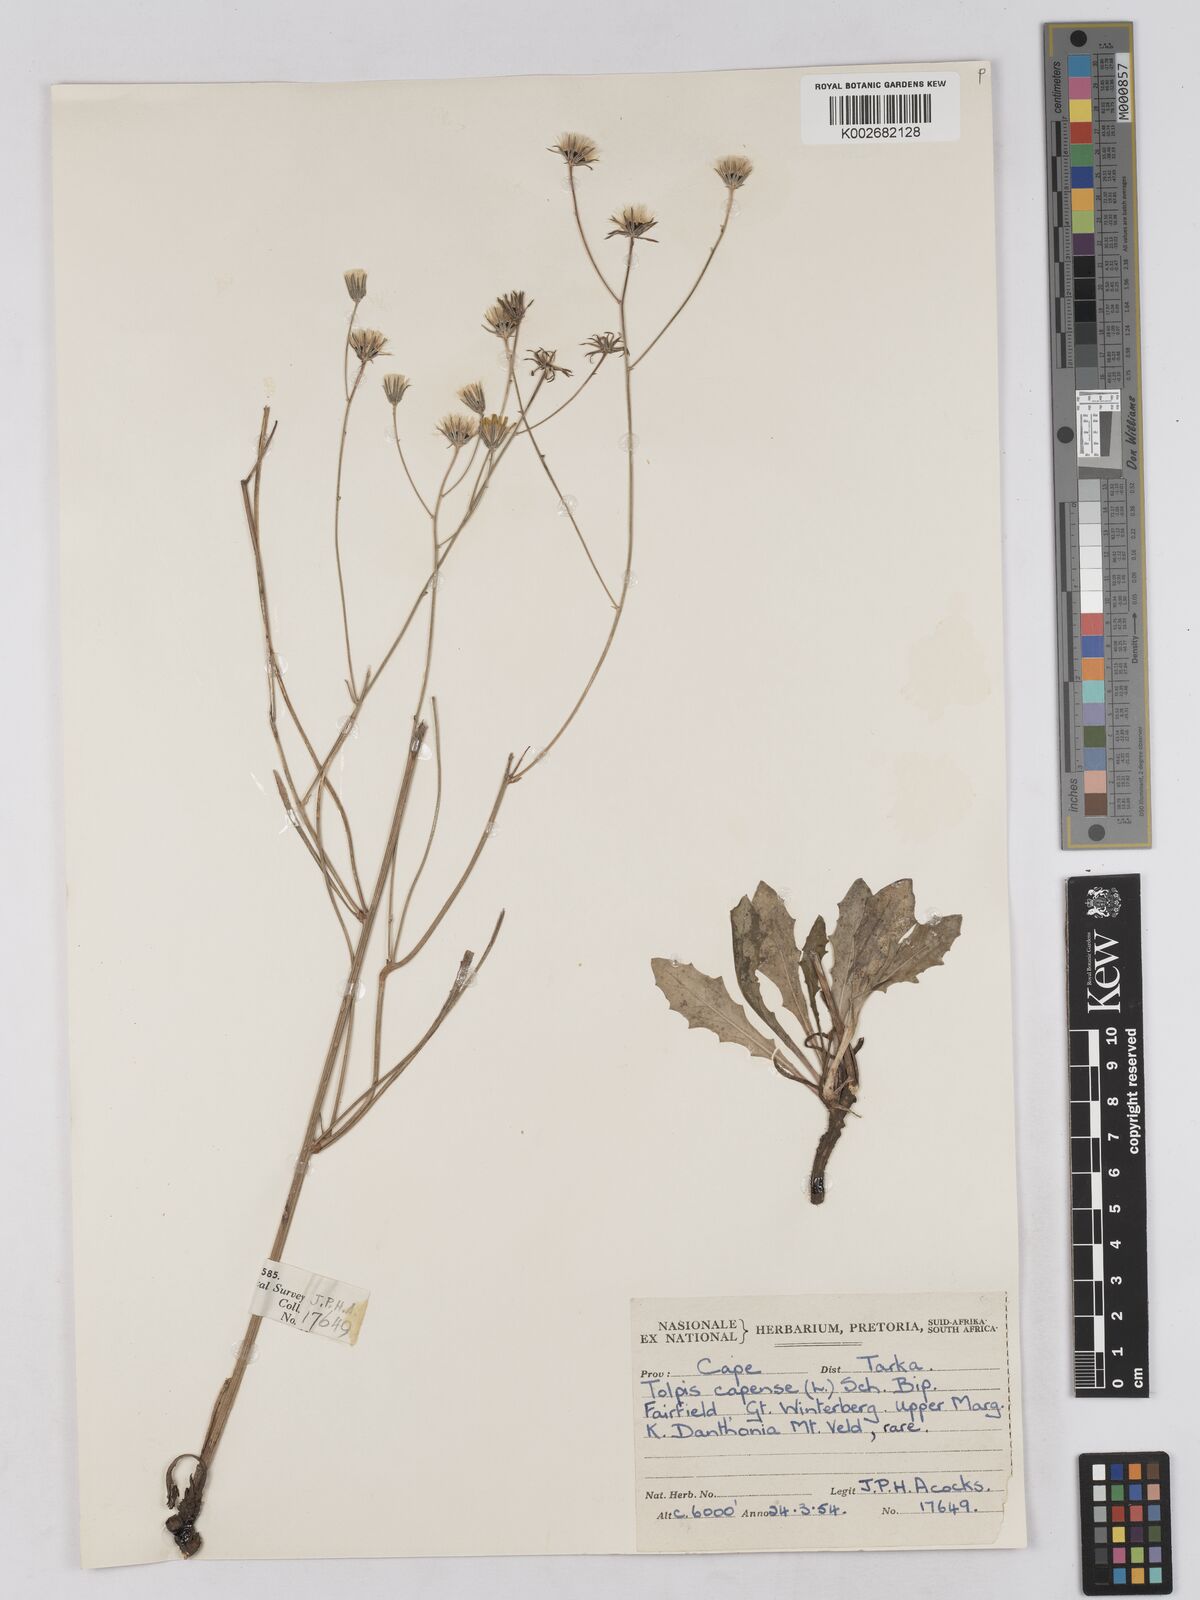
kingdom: Plantae
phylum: Tracheophyta
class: Magnoliopsida
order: Asterales
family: Asteraceae
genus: Tolpis
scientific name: Tolpis capensis
